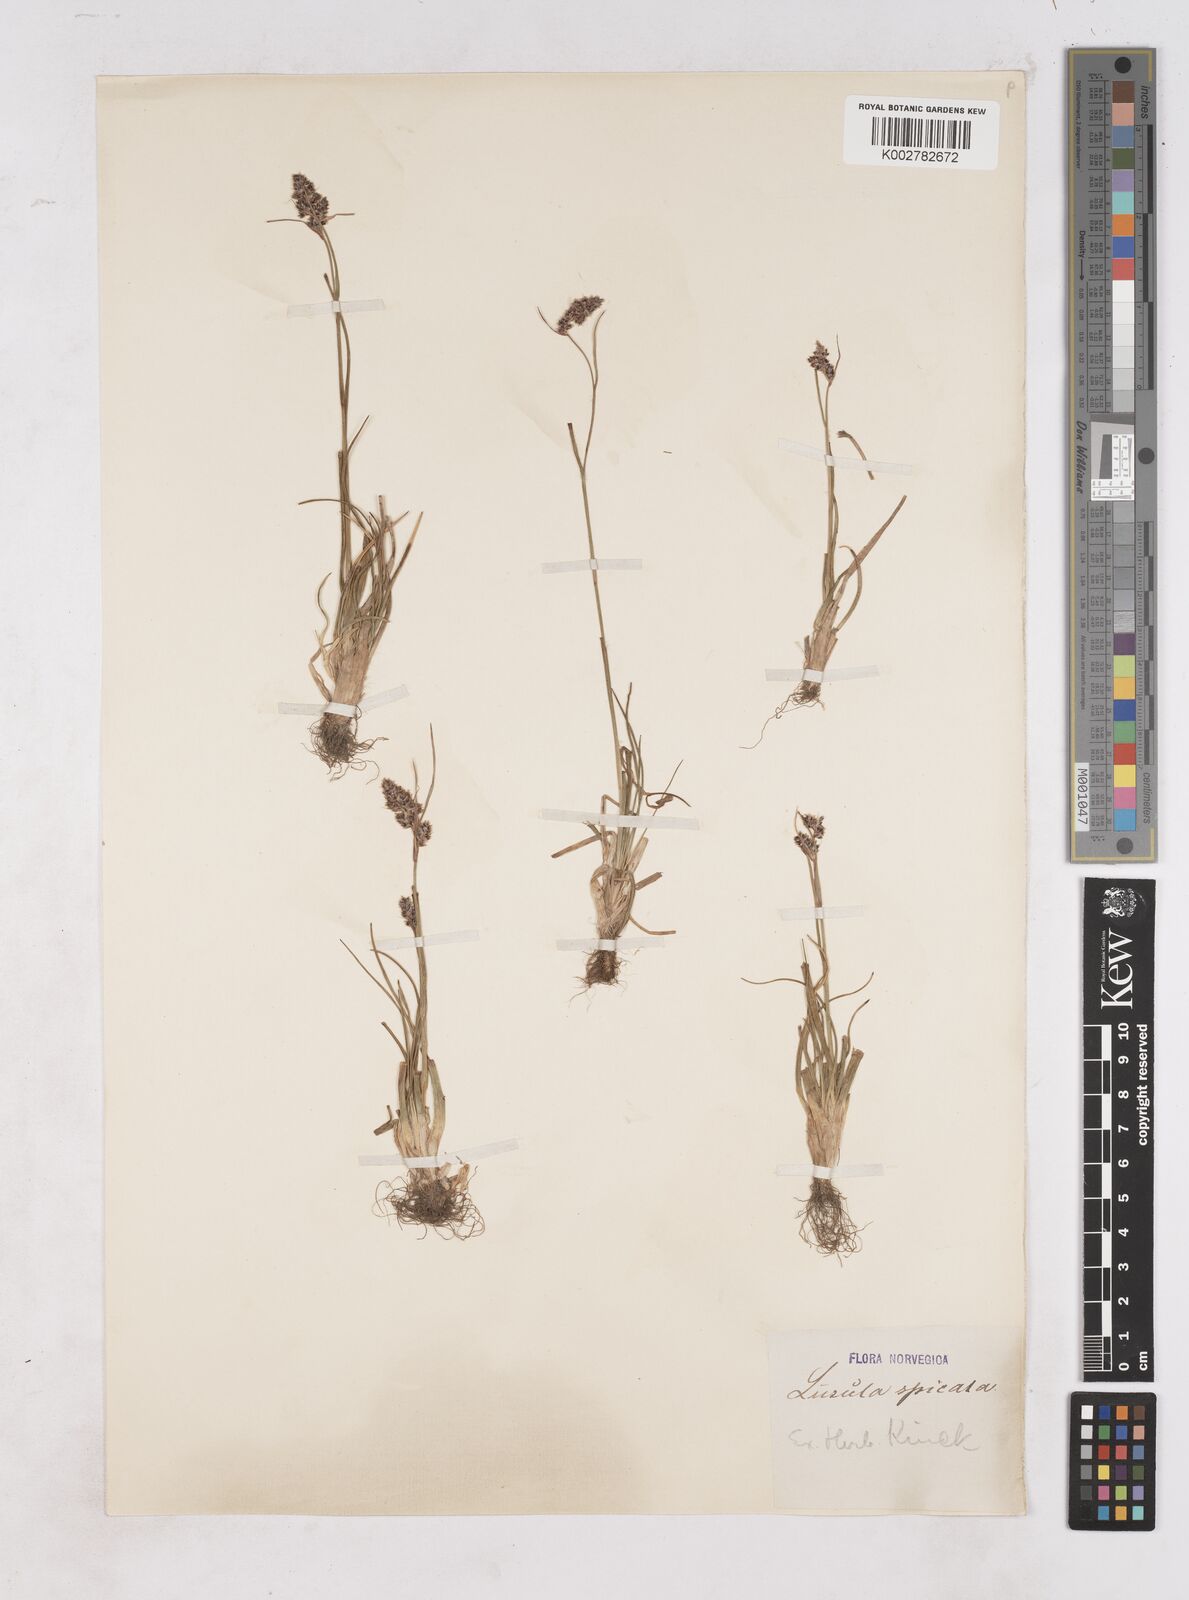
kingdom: Plantae
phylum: Tracheophyta
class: Liliopsida
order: Poales
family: Juncaceae
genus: Luzula
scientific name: Luzula spicata
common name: Spiked wood-rush
